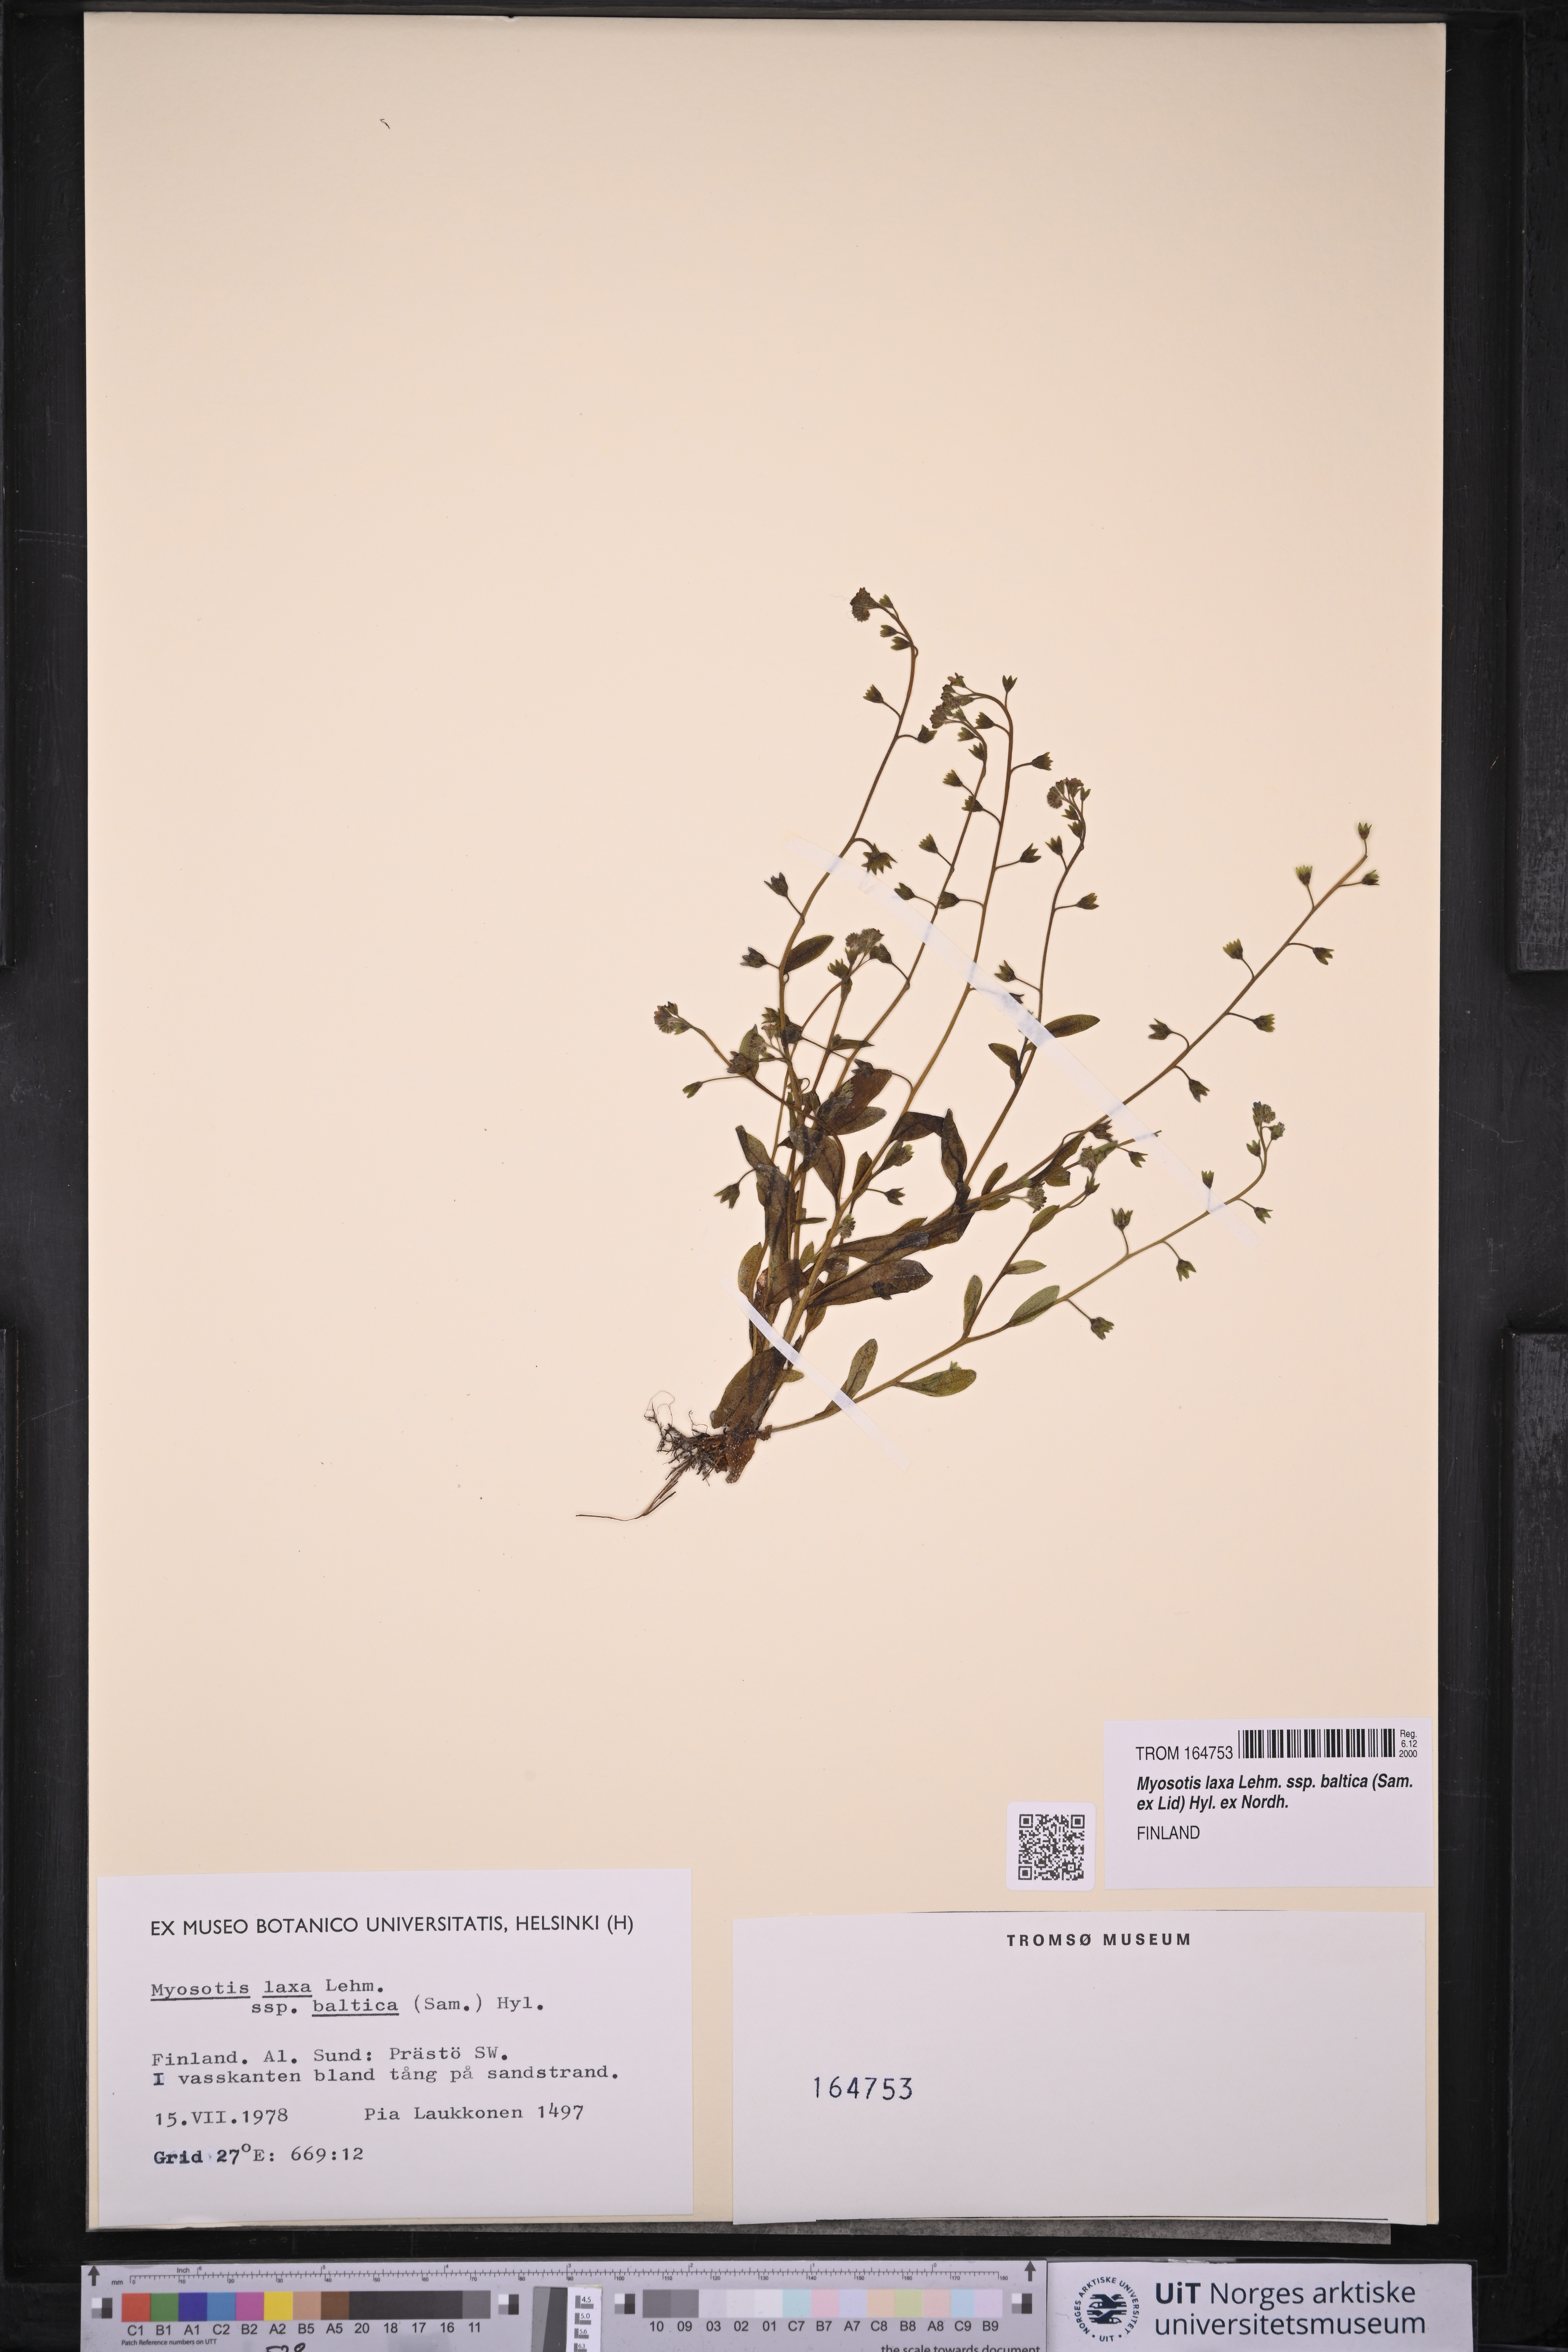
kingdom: Plantae
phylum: Tracheophyta
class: Magnoliopsida
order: Boraginales
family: Boraginaceae
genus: Myosotis
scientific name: Myosotis laxa
